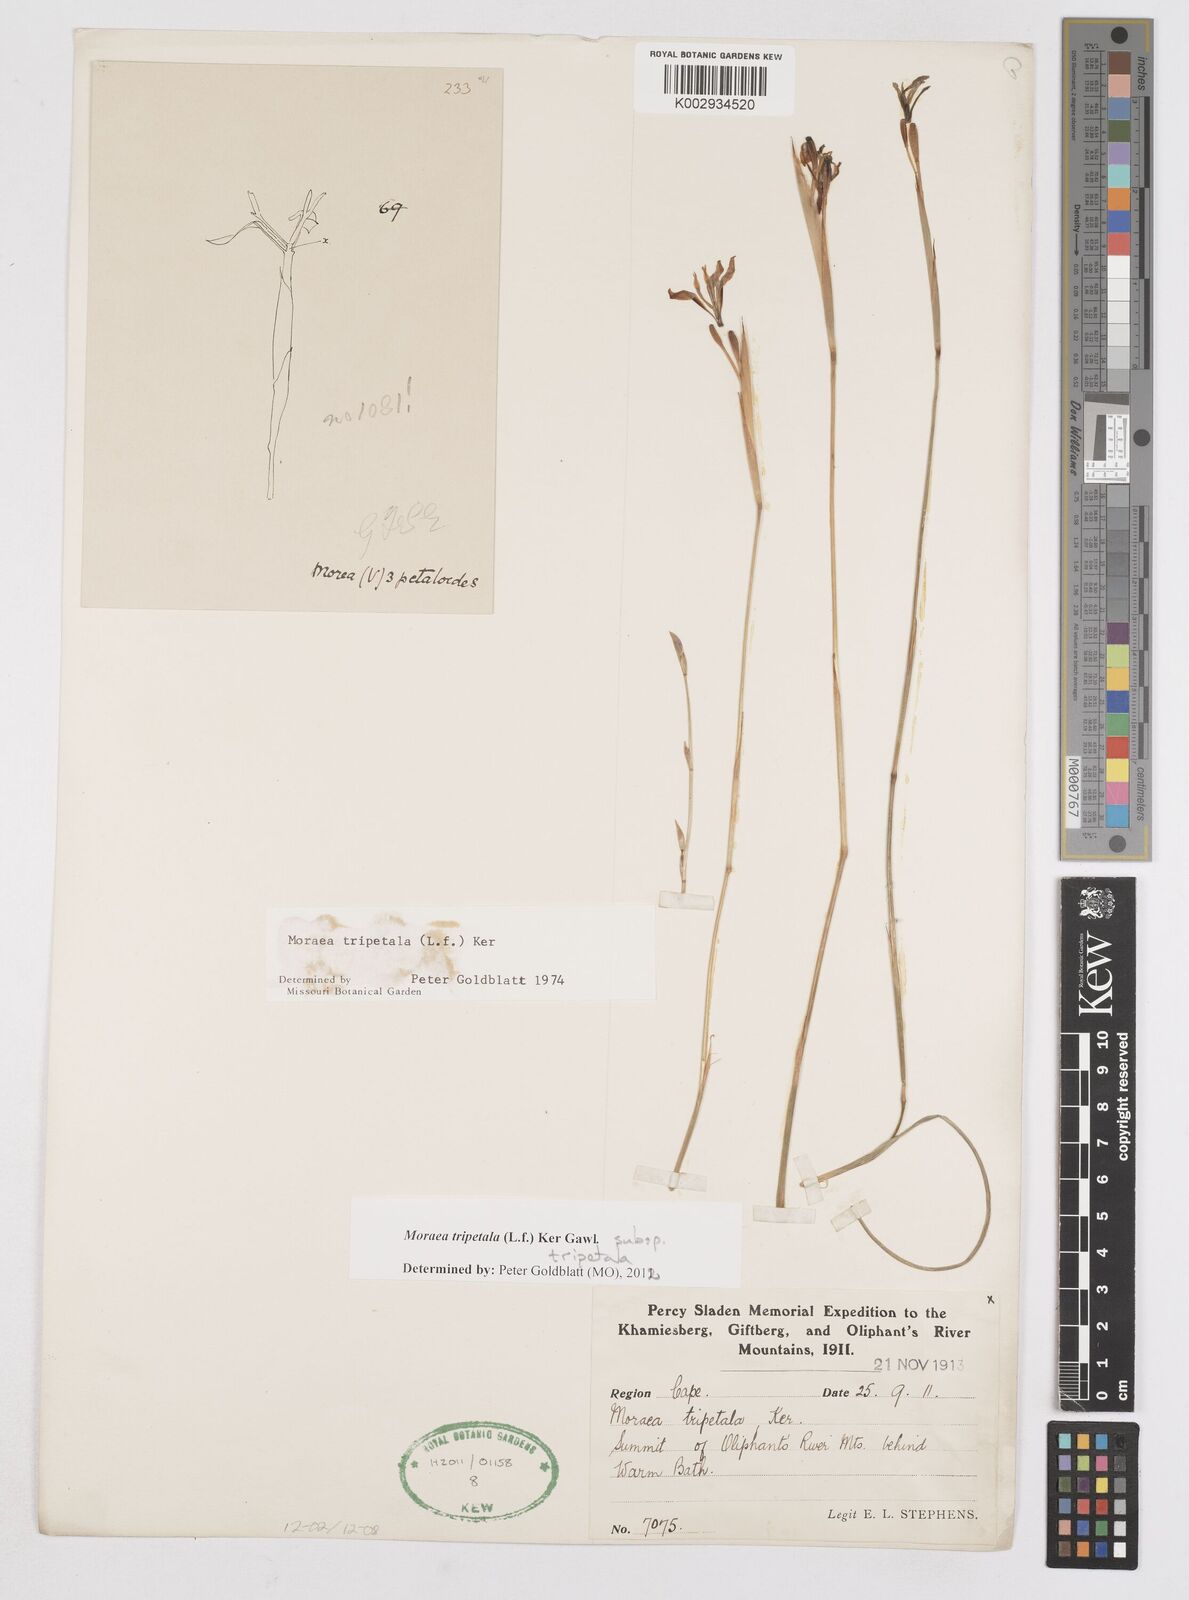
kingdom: Plantae
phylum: Tracheophyta
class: Liliopsida
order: Asparagales
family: Iridaceae
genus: Moraea
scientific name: Moraea tripetala
